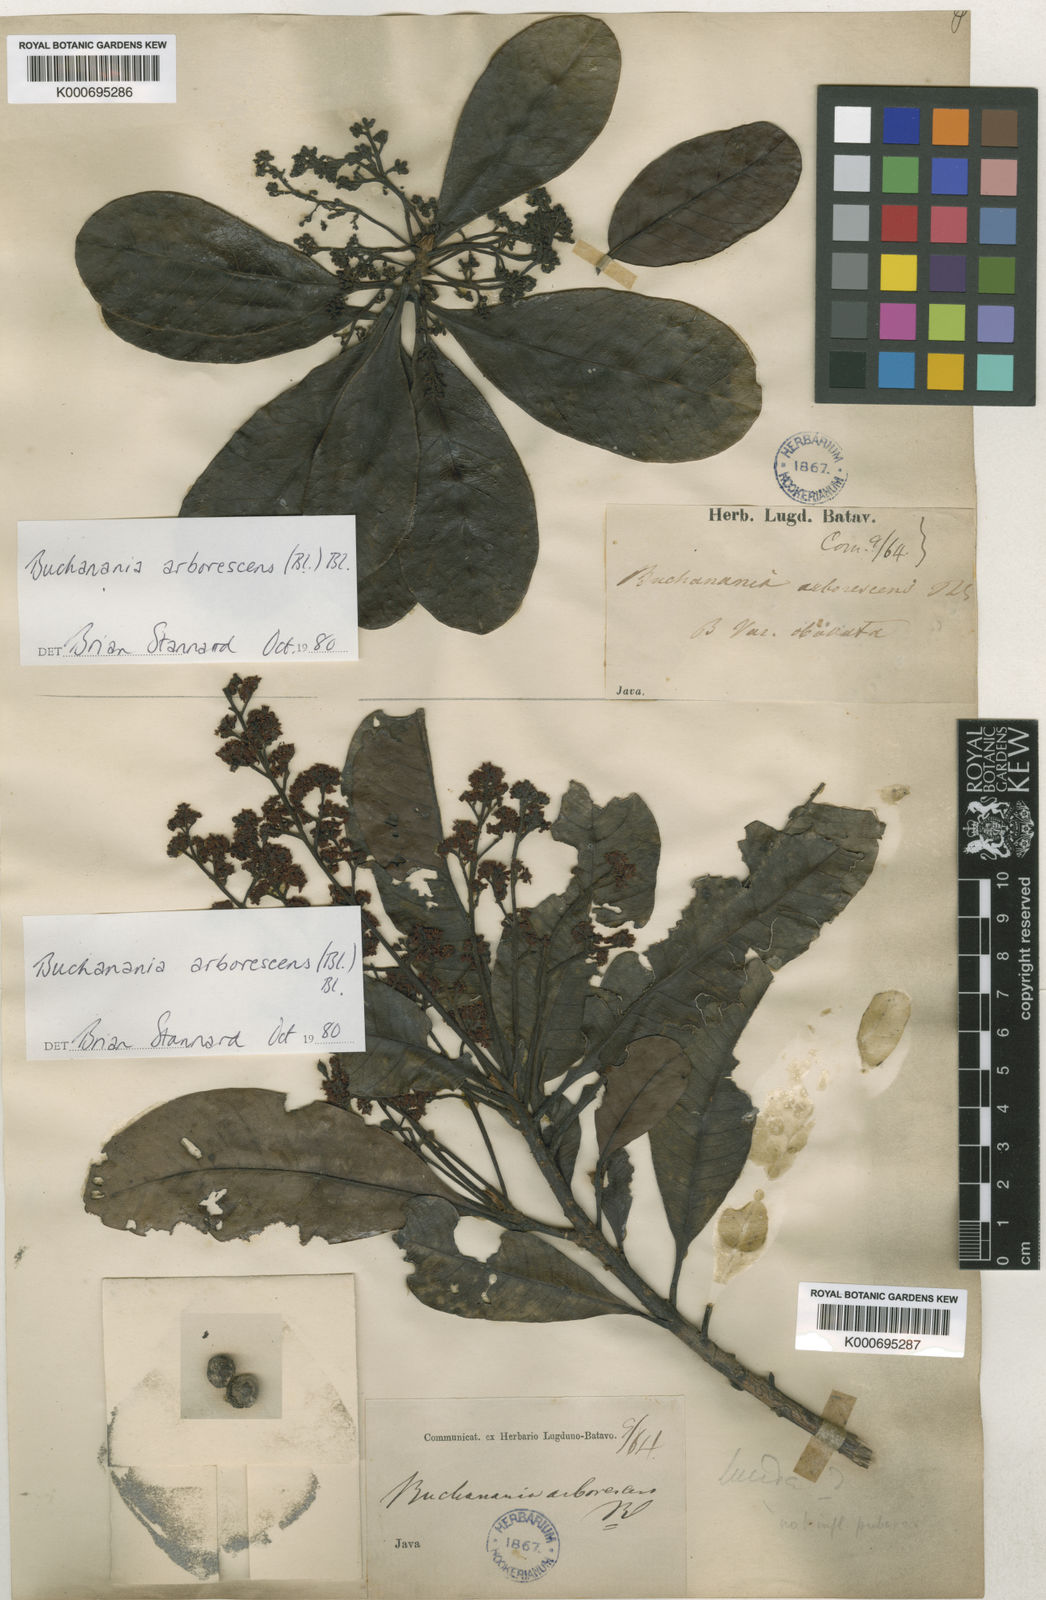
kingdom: Plantae
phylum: Tracheophyta
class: Magnoliopsida
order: Sapindales
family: Anacardiaceae
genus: Buchanania
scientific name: Buchanania arborescens
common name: Sparrow’s mango
